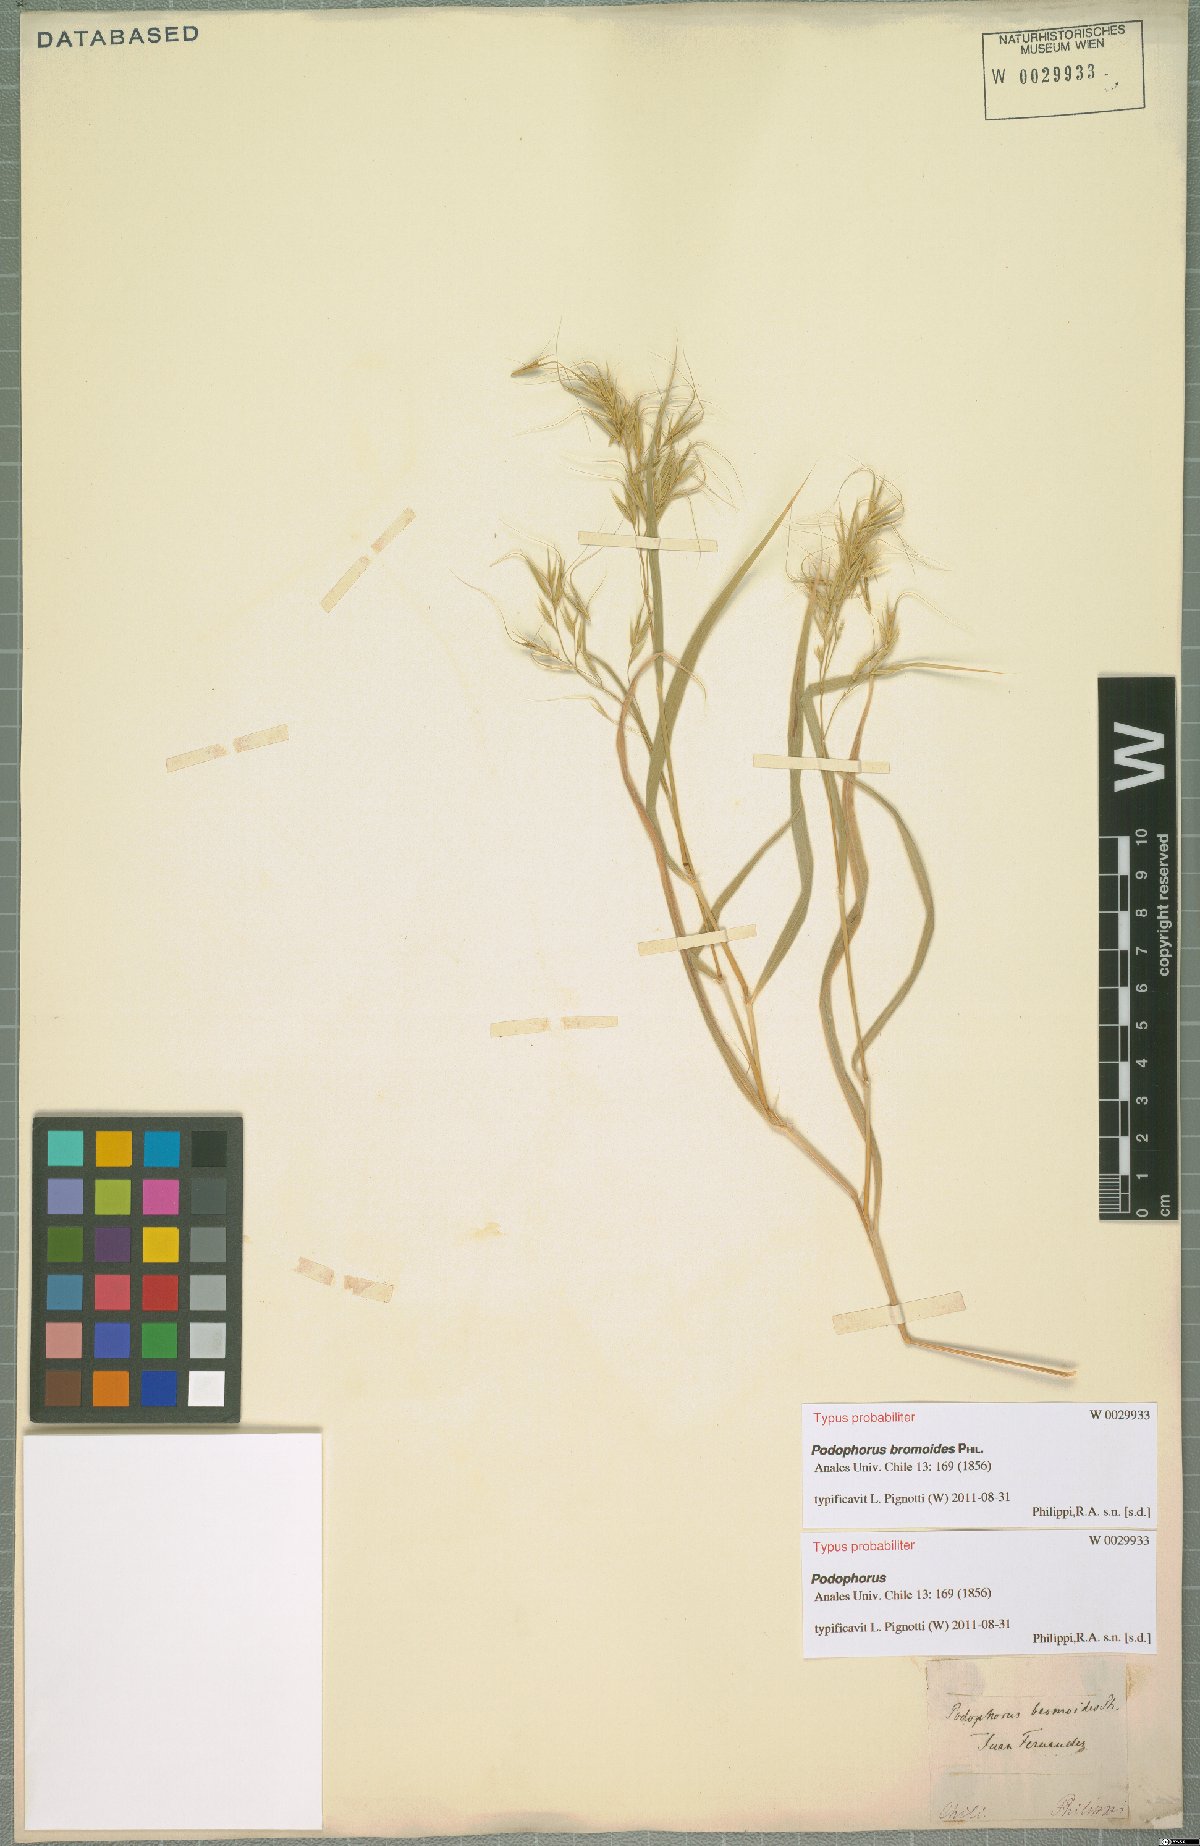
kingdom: Plantae
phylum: Tracheophyta
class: Liliopsida
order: Poales
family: Poaceae
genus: Festuca
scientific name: Festuca masatierrae
